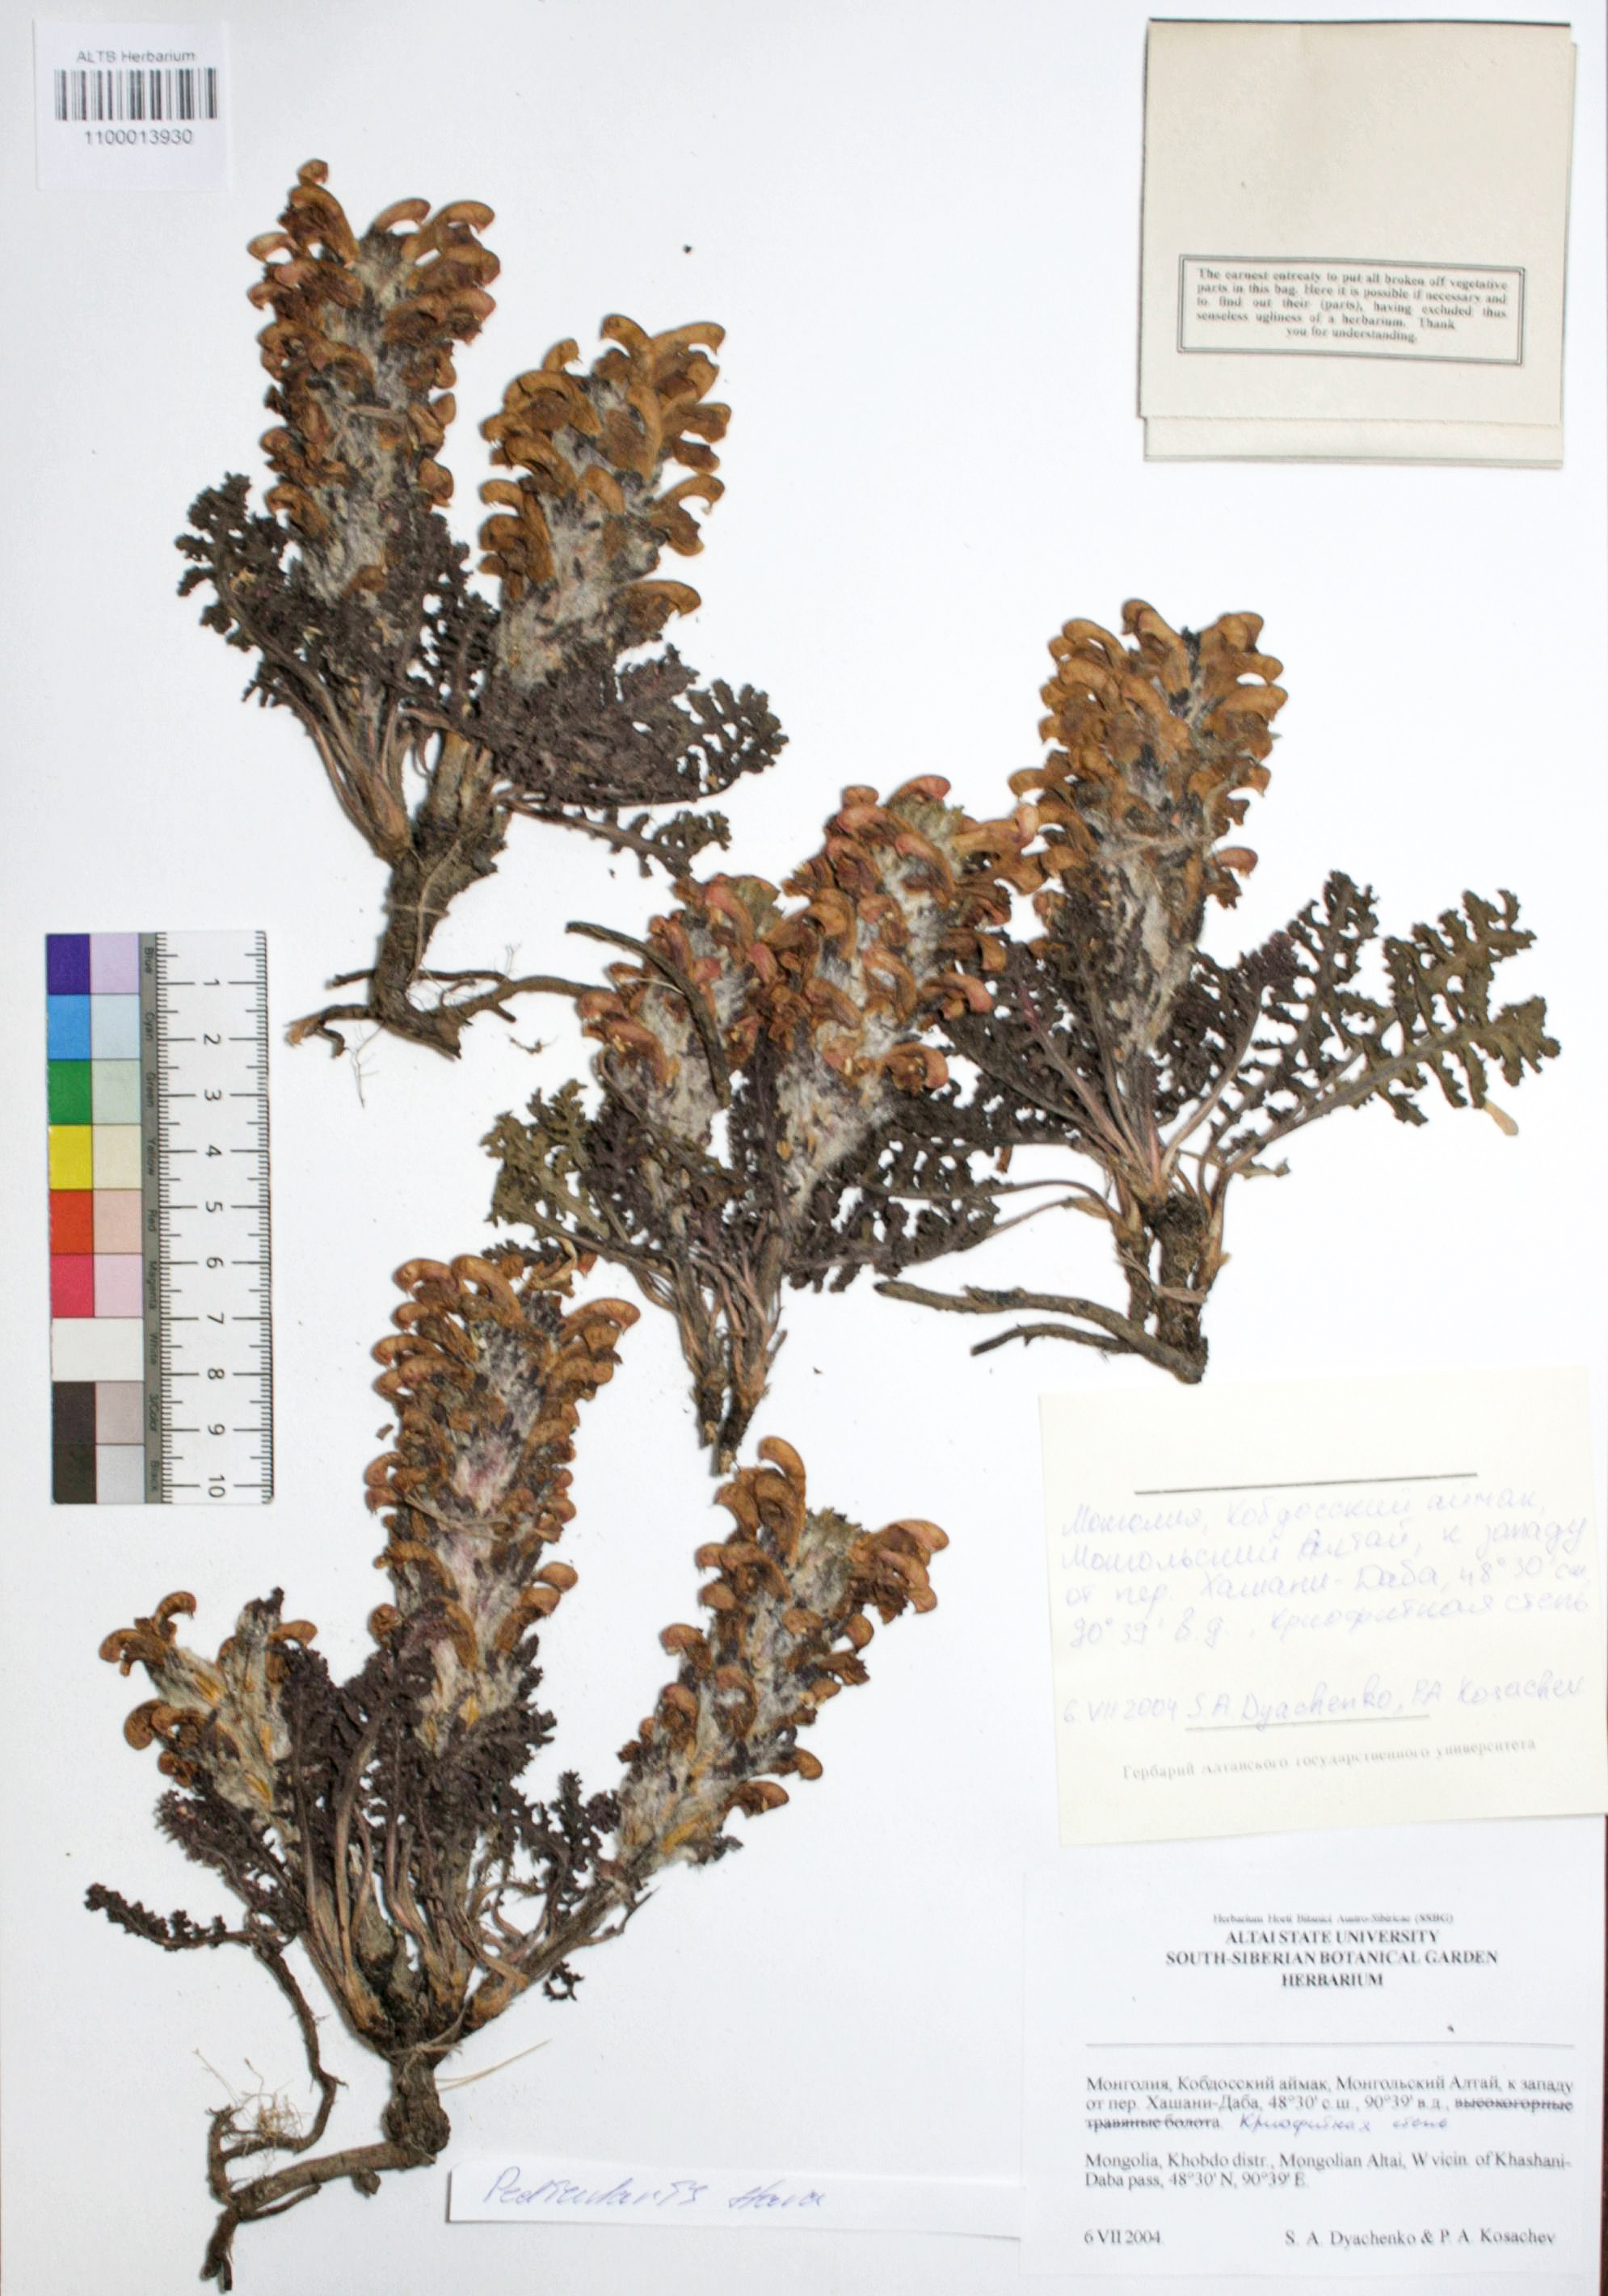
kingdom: Plantae
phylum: Tracheophyta
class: Magnoliopsida
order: Lamiales
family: Orobanchaceae
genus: Pedicularis
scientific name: Pedicularis flava
